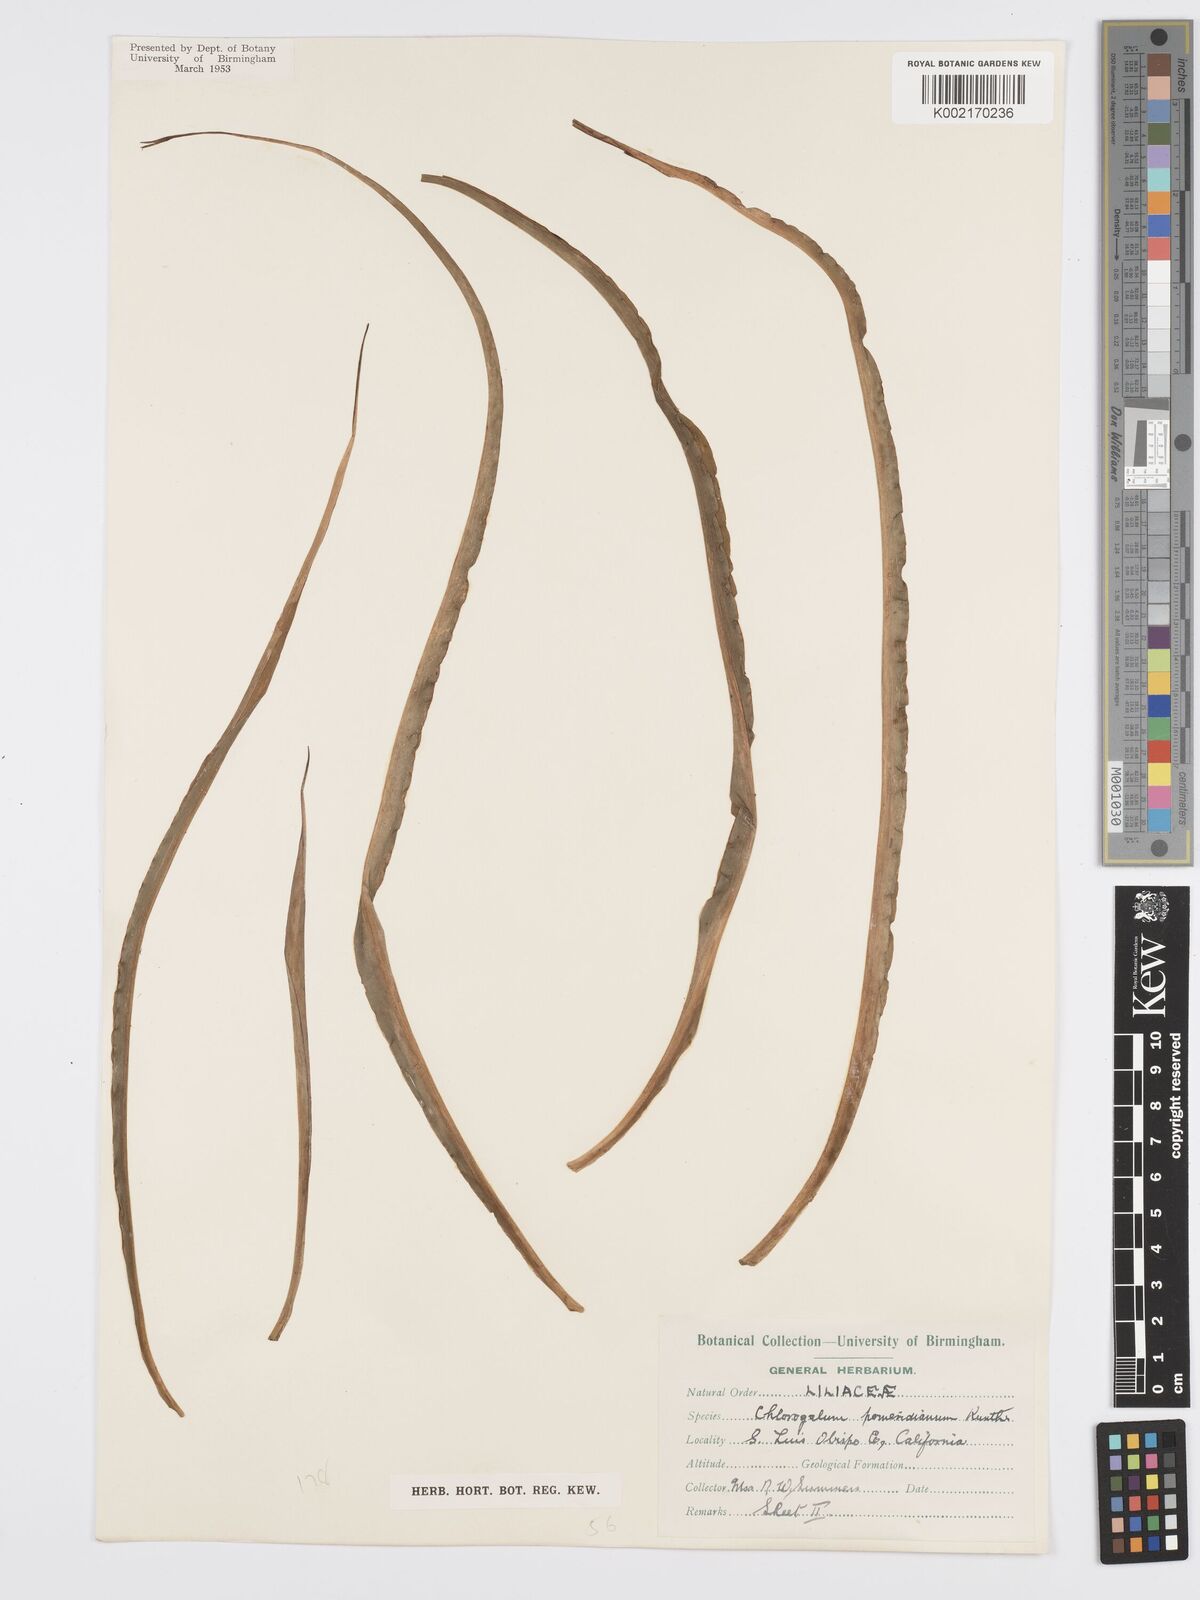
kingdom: Plantae
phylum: Tracheophyta
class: Liliopsida
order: Asparagales
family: Asparagaceae
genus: Chlorogalum
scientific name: Chlorogalum pomeridianum
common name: Amole
